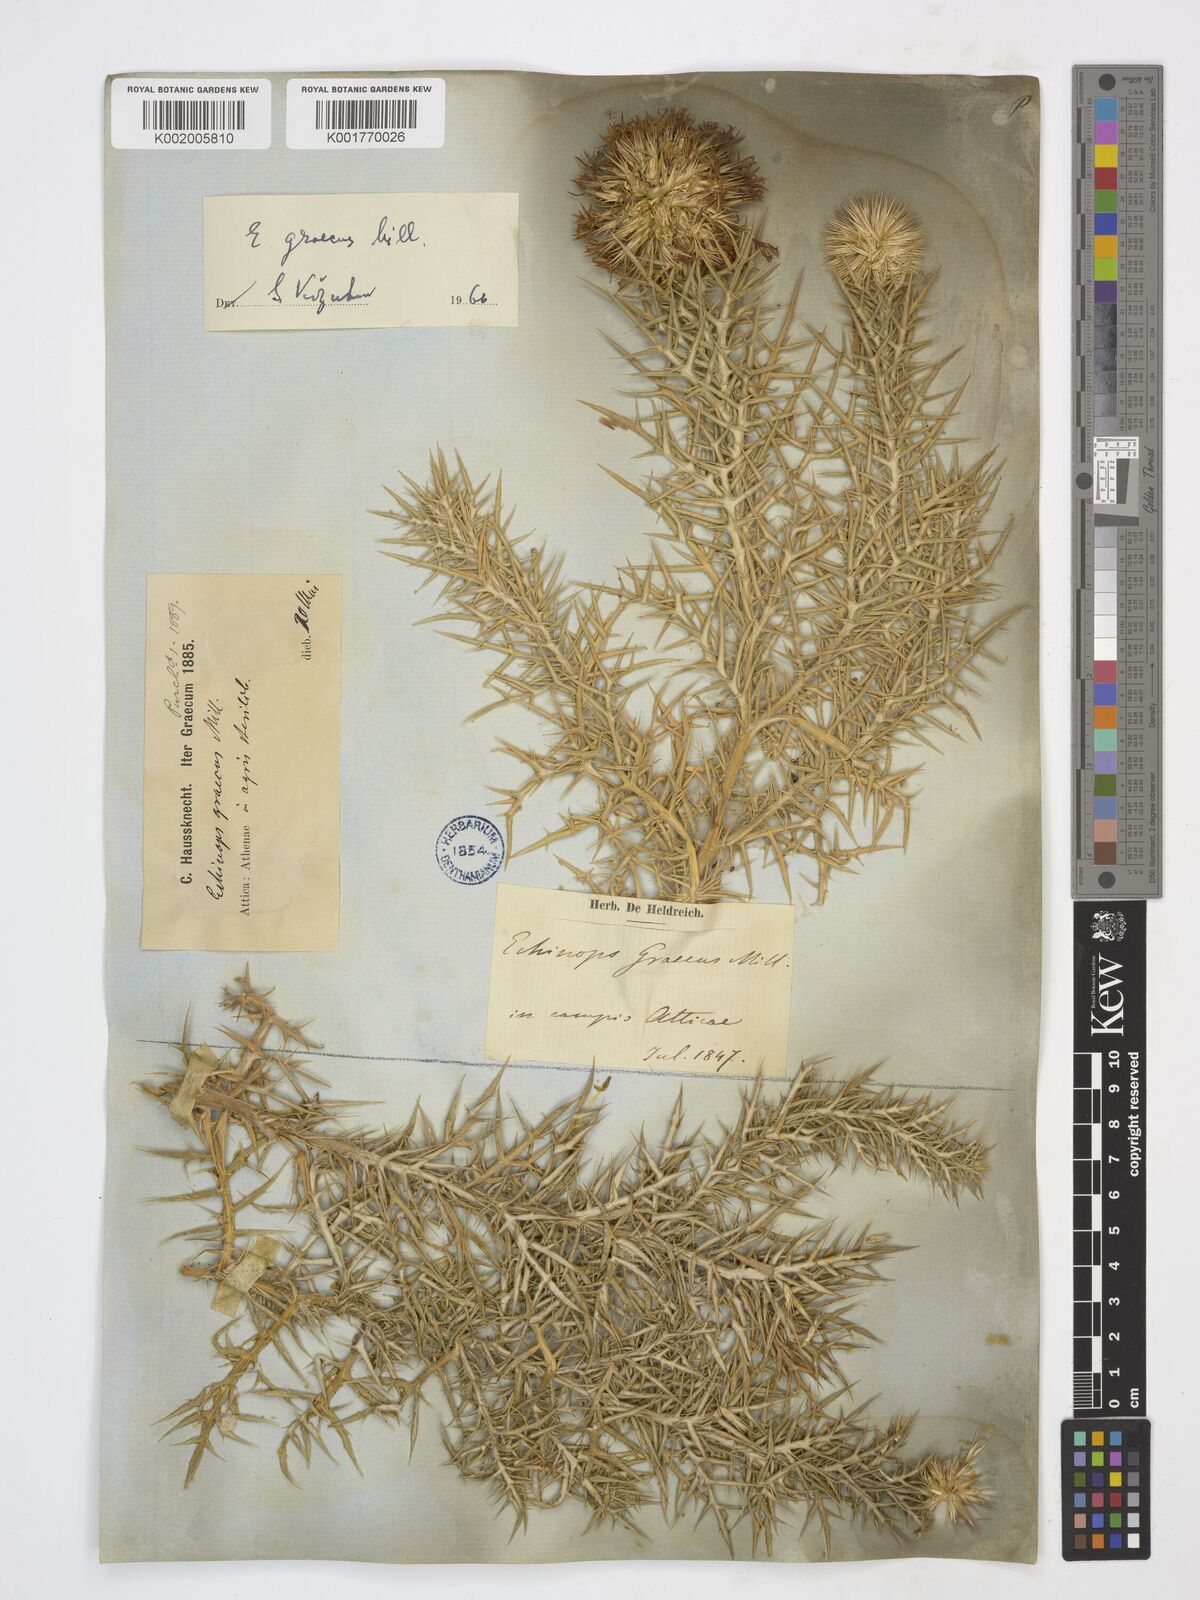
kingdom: Plantae
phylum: Tracheophyta
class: Magnoliopsida
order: Asterales
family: Asteraceae
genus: Echinops
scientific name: Echinops graecus
